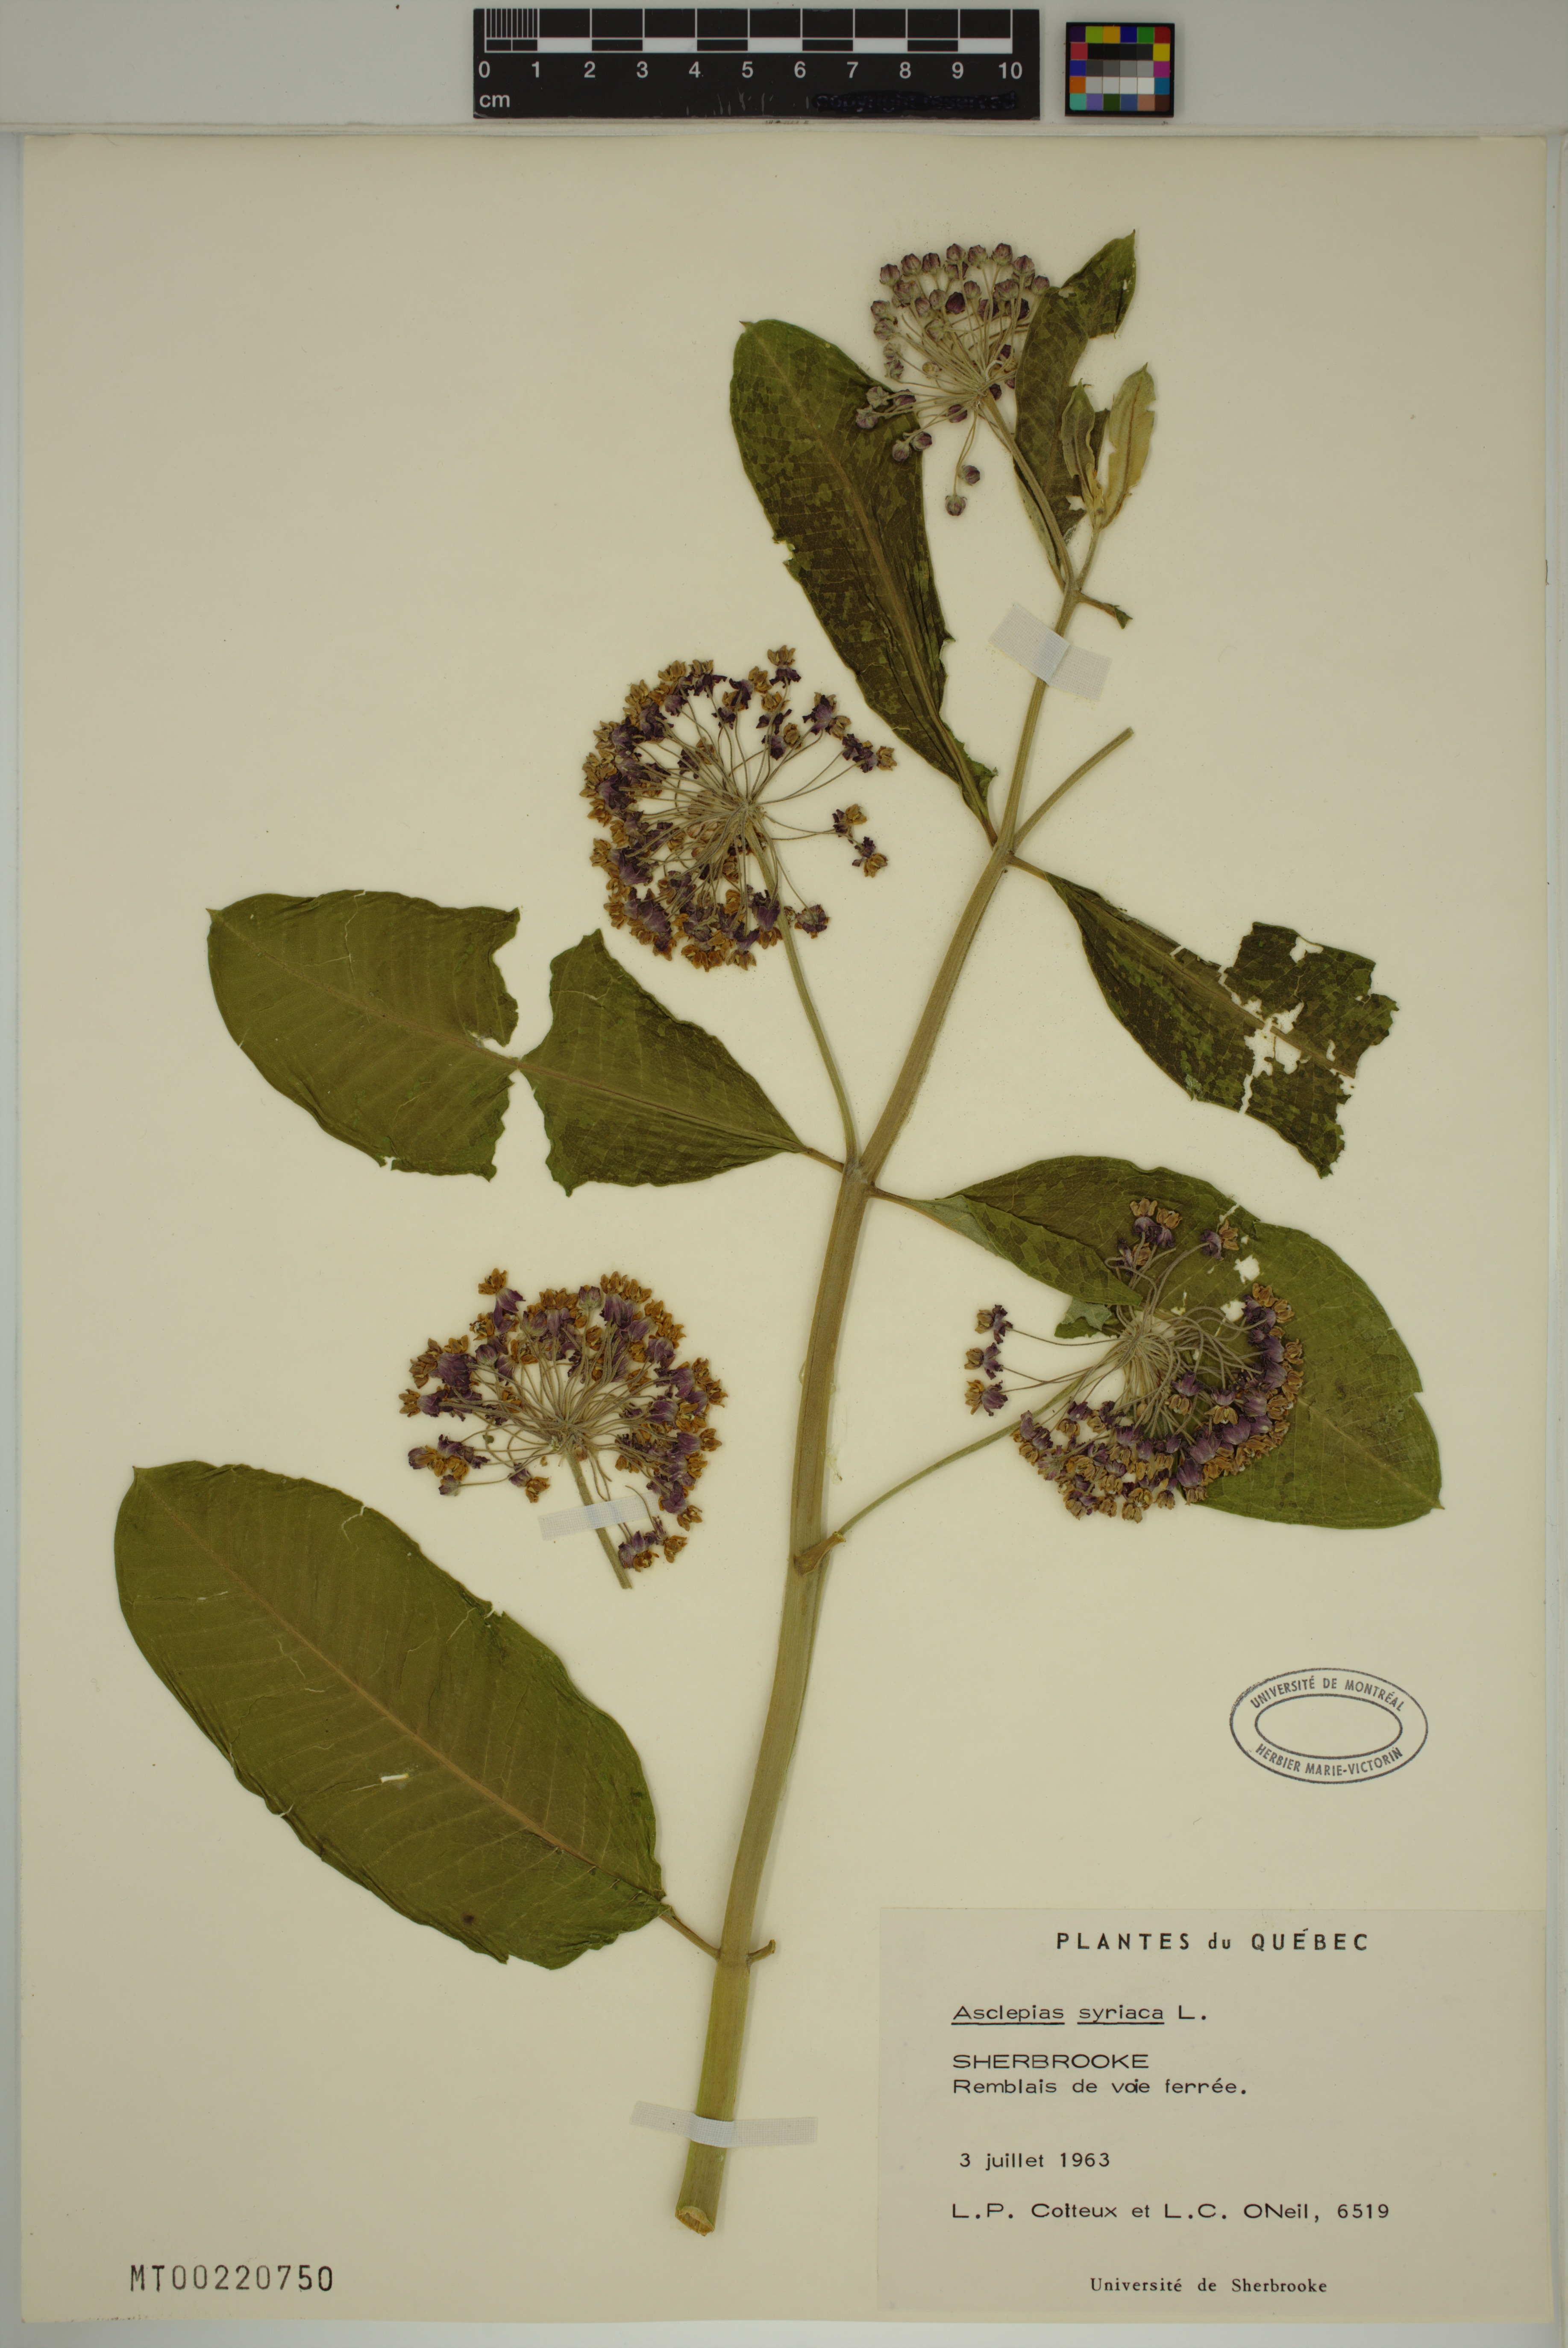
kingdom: Plantae
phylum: Tracheophyta
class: Magnoliopsida
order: Gentianales
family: Apocynaceae
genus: Asclepias
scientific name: Asclepias syriaca
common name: Common milkweed
